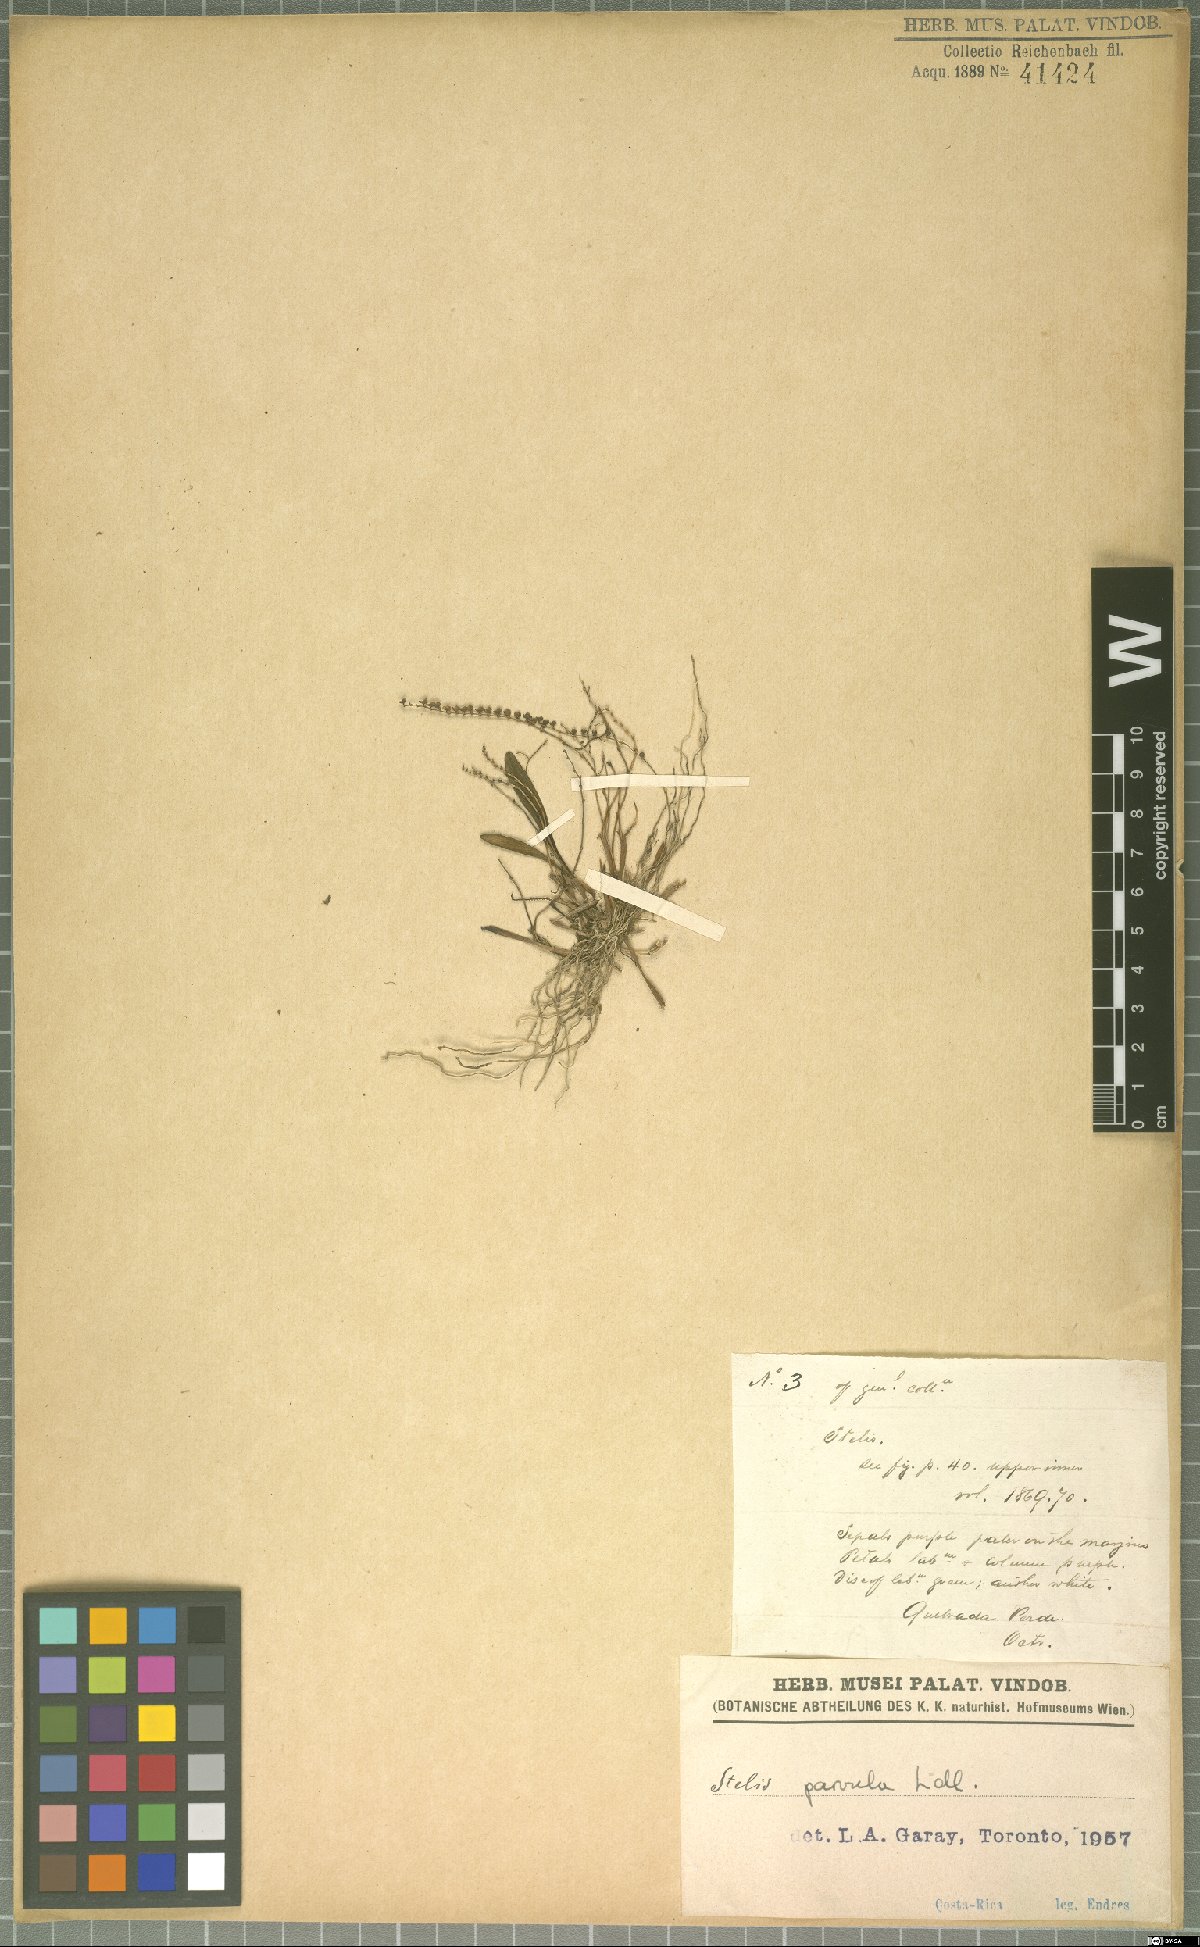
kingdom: Plantae
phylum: Tracheophyta
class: Liliopsida
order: Asparagales
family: Orchidaceae
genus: Stelis
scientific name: Stelis parvula
